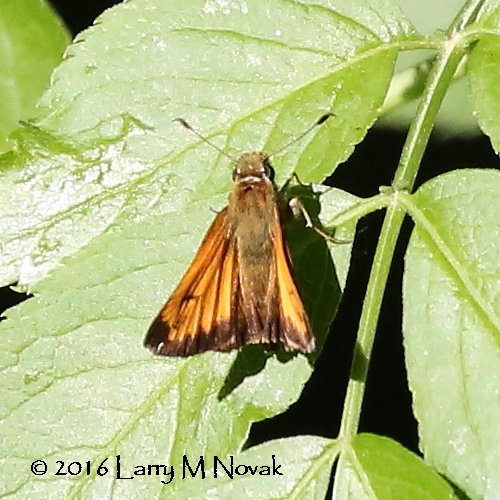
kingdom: Animalia
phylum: Arthropoda
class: Insecta
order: Lepidoptera
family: Hesperiidae
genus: Lon
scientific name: Lon hobomok
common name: Hobomok Skipper
